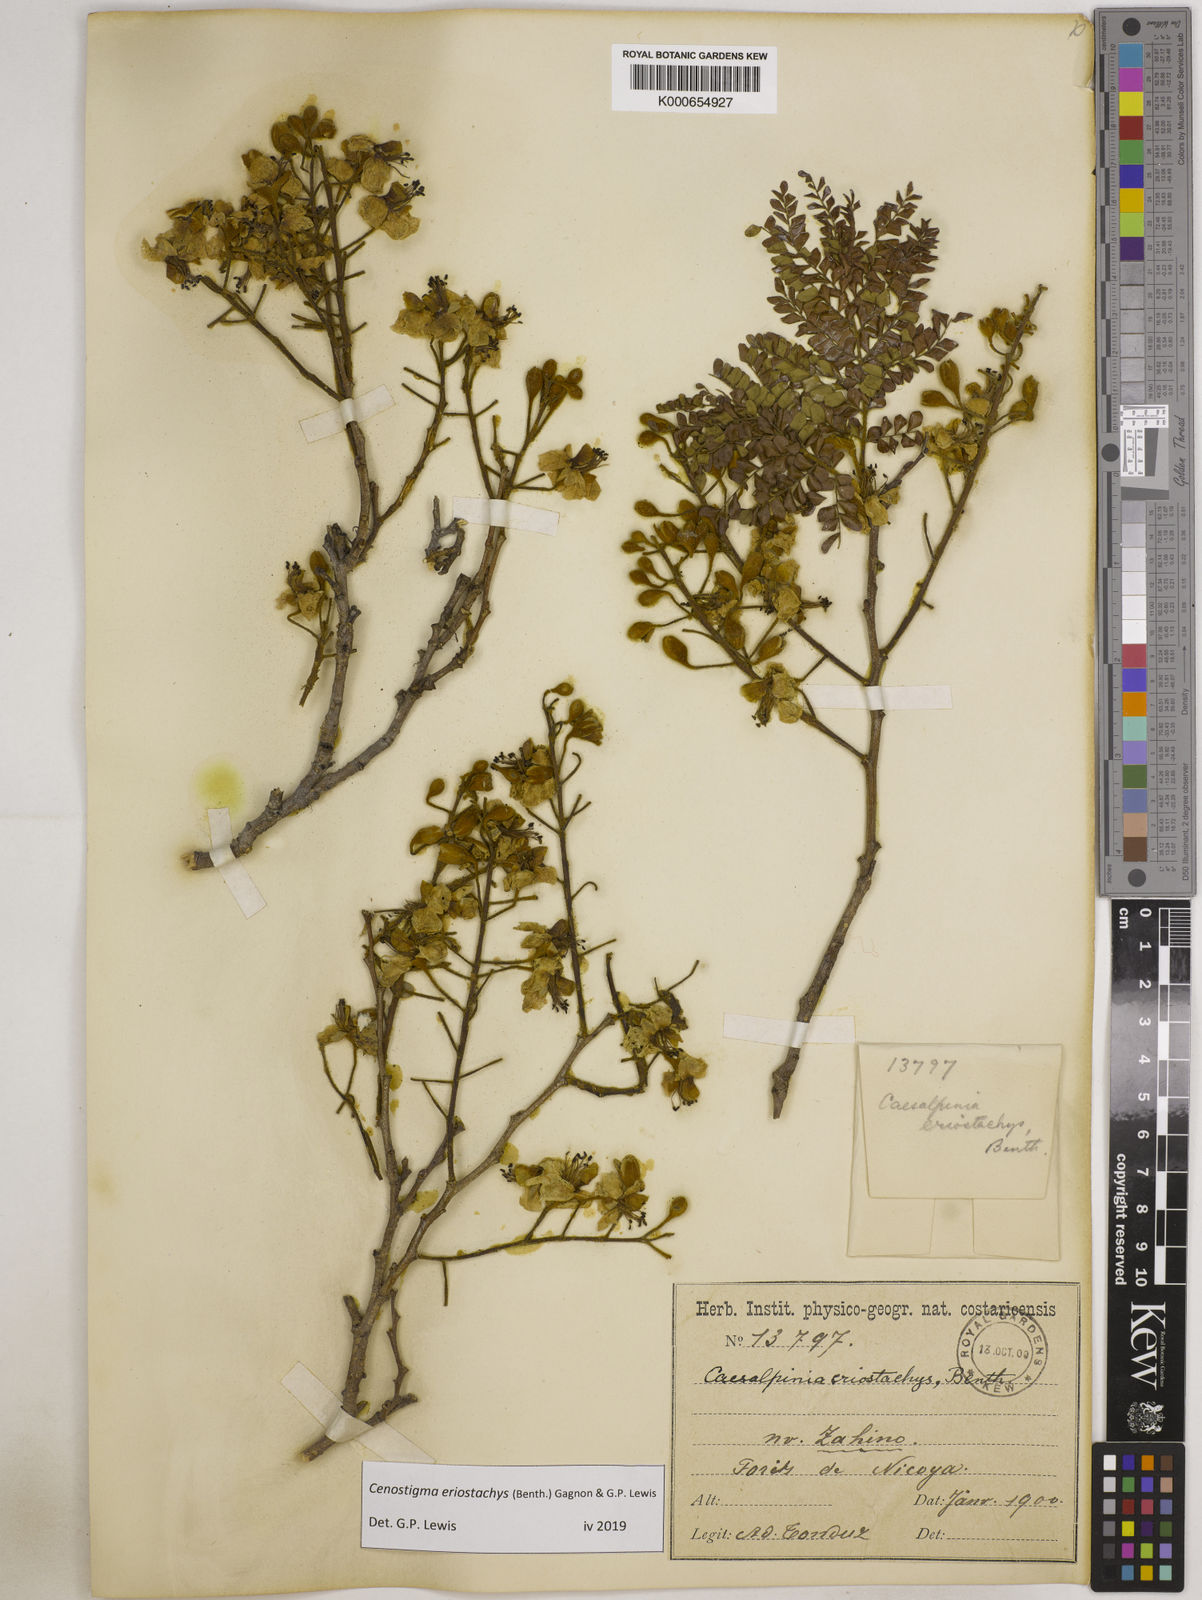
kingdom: Plantae
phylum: Tracheophyta
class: Magnoliopsida
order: Fabales
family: Fabaceae
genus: Cenostigma
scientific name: Cenostigma eriostachys
